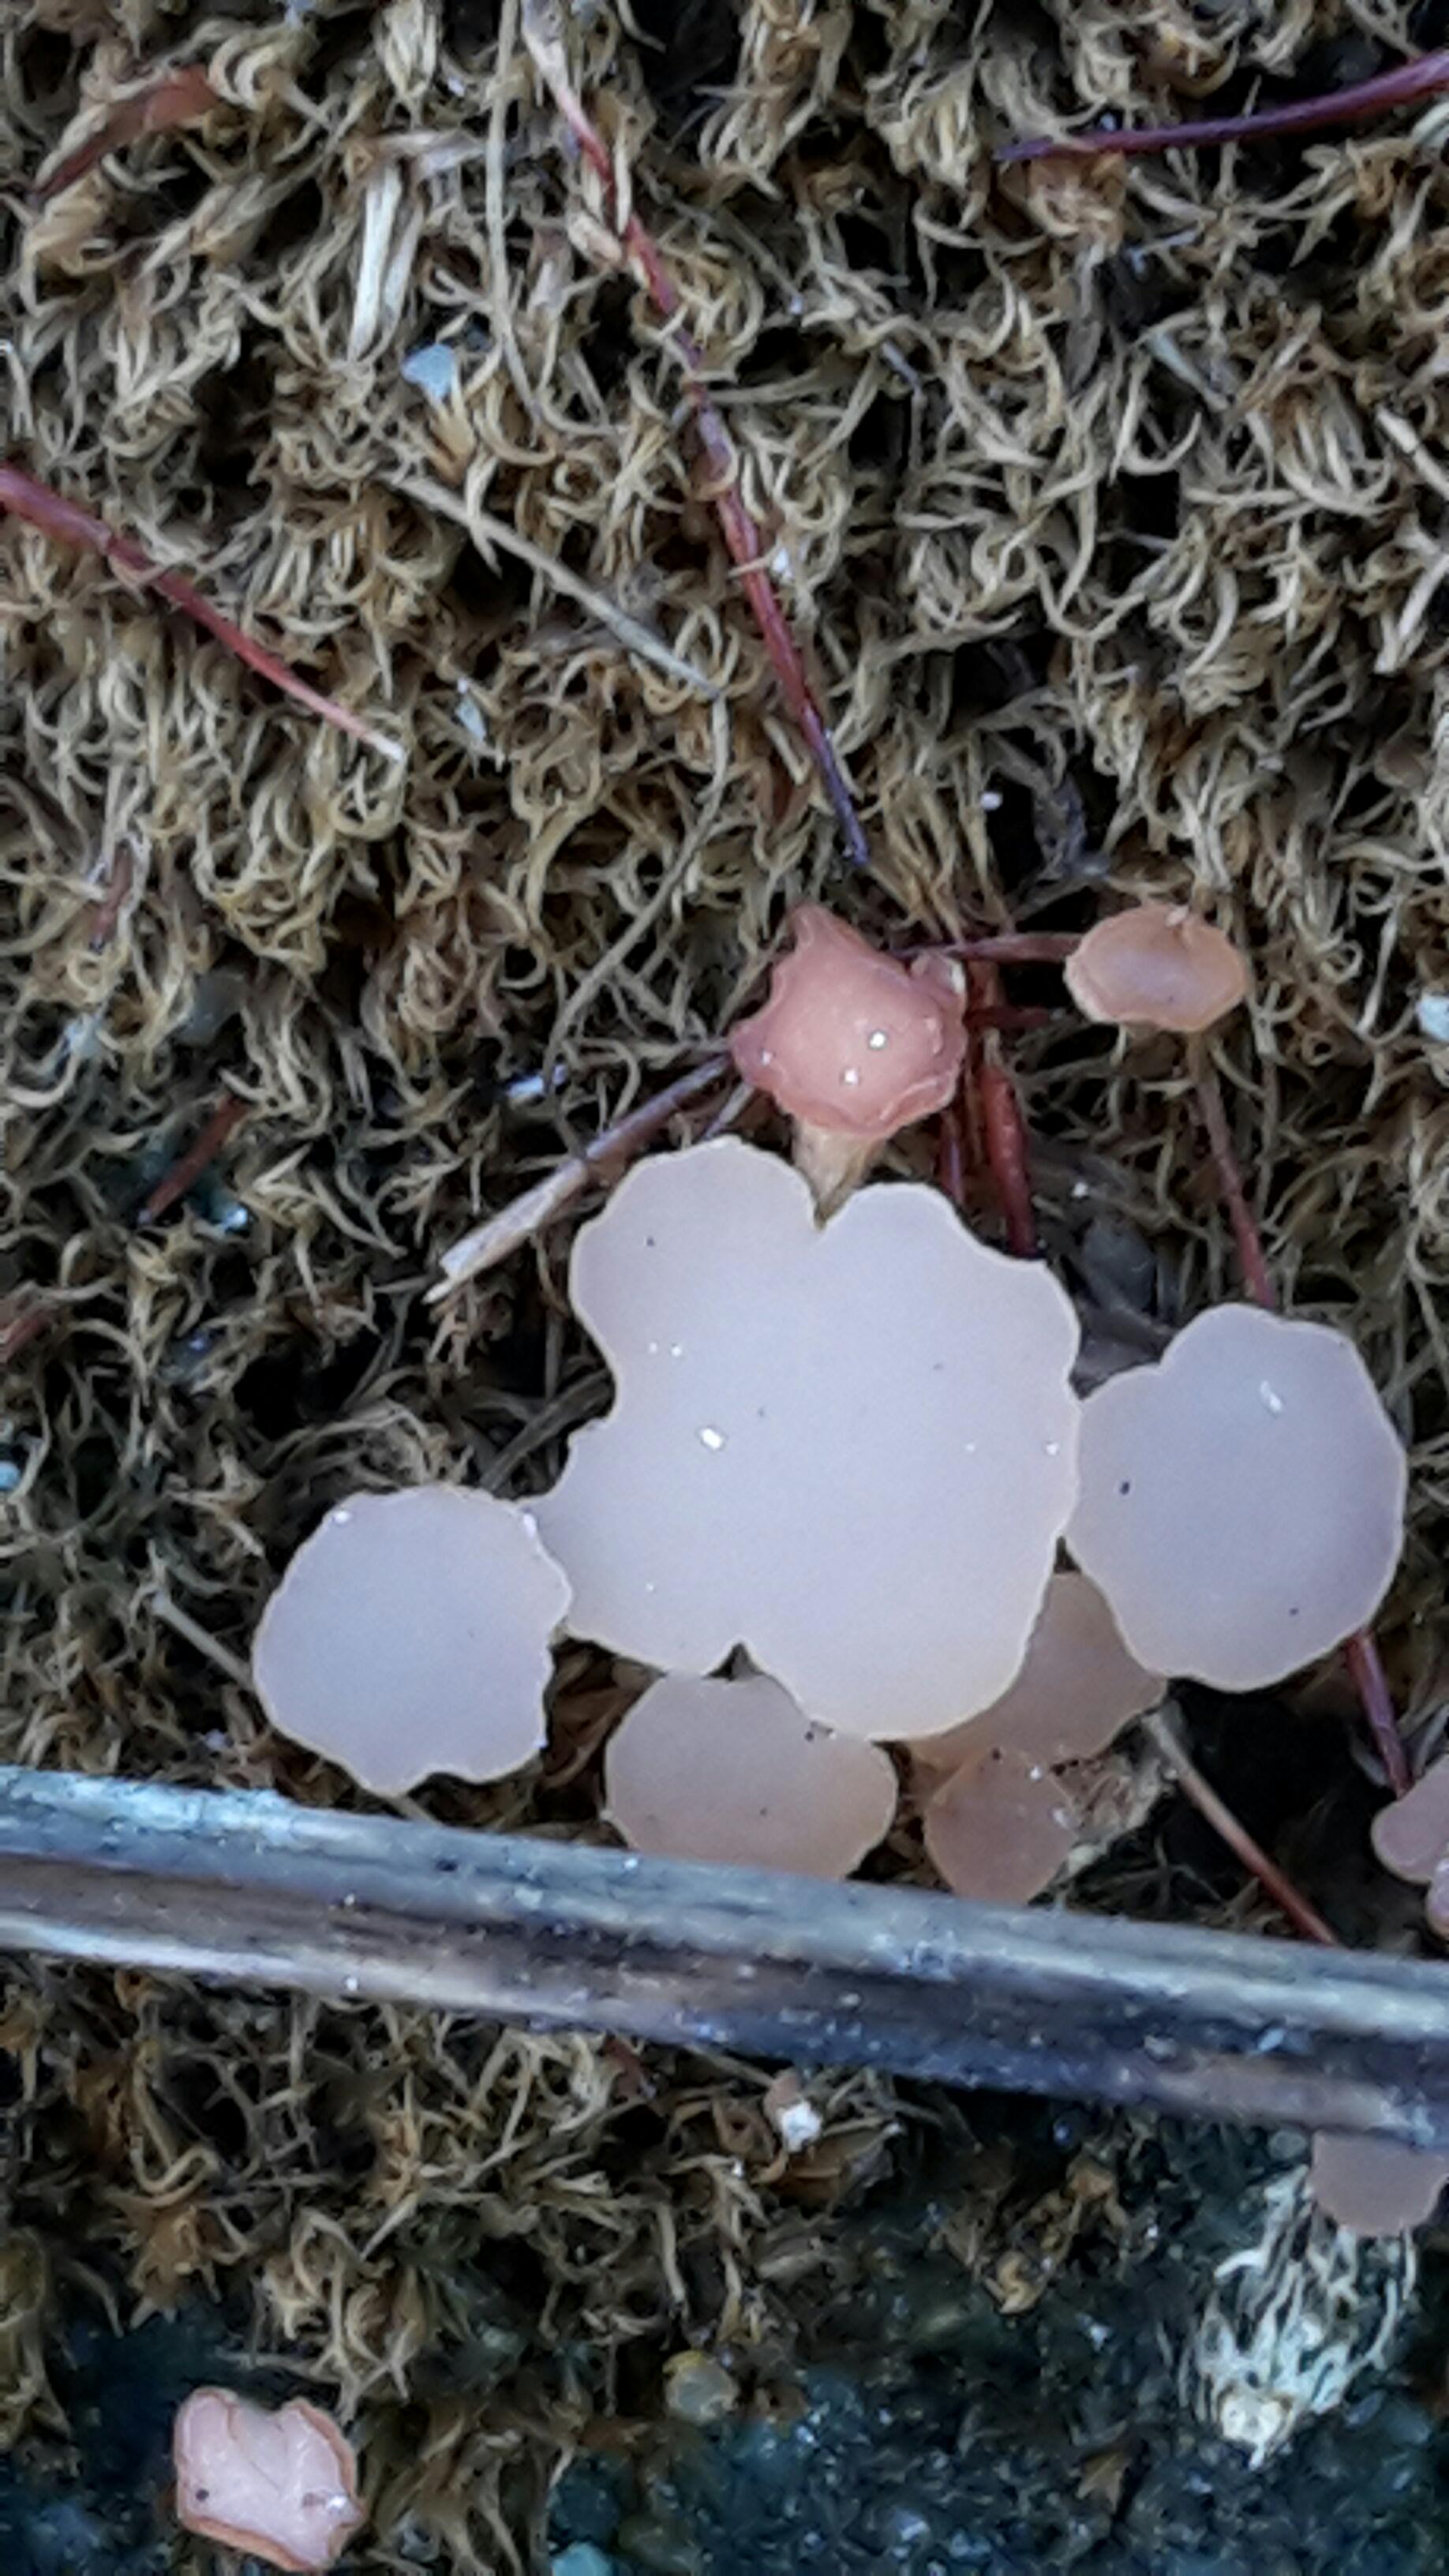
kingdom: Fungi
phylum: Ascomycota
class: Leotiomycetes
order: Helotiales
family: Hyaloscyphaceae
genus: Roseodiscus
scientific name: Roseodiscus formosus
